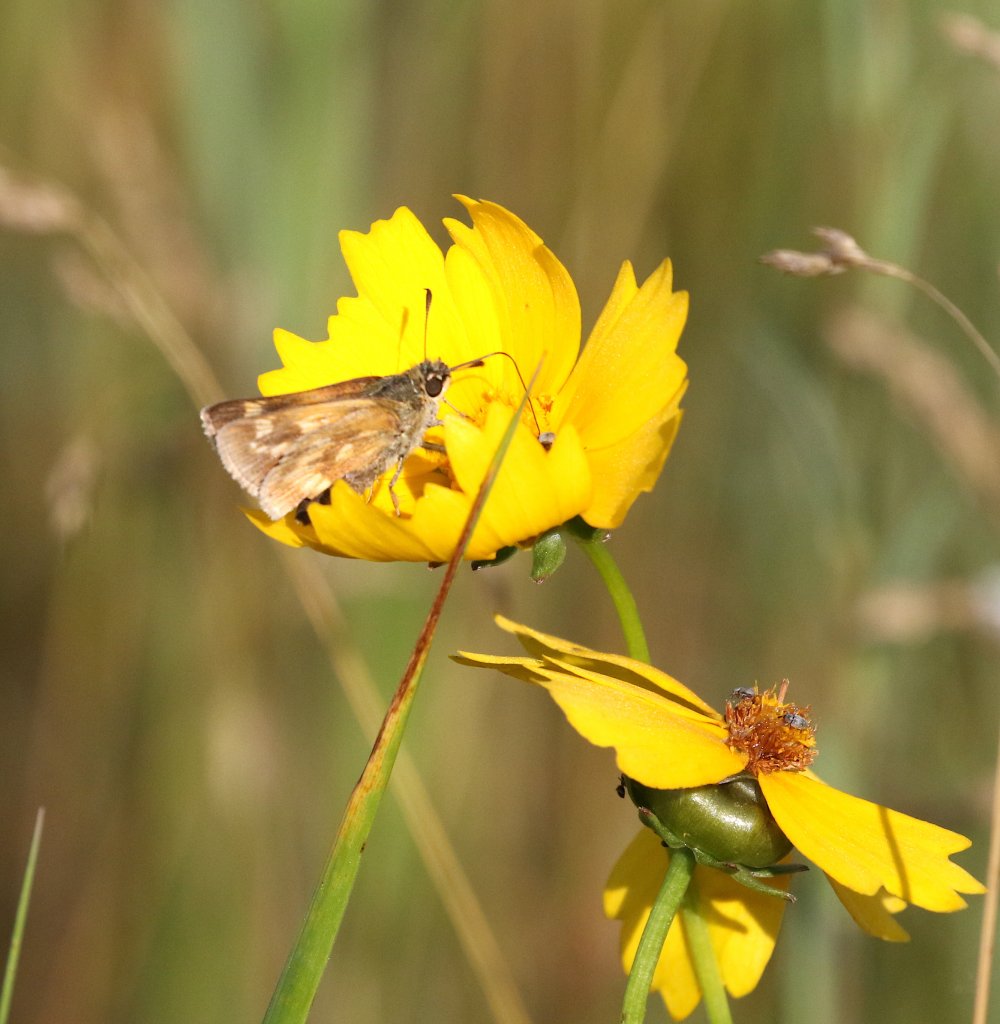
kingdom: Animalia
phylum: Arthropoda
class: Insecta
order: Lepidoptera
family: Hesperiidae
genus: Polites
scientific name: Polites coras
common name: Peck's Skipper
